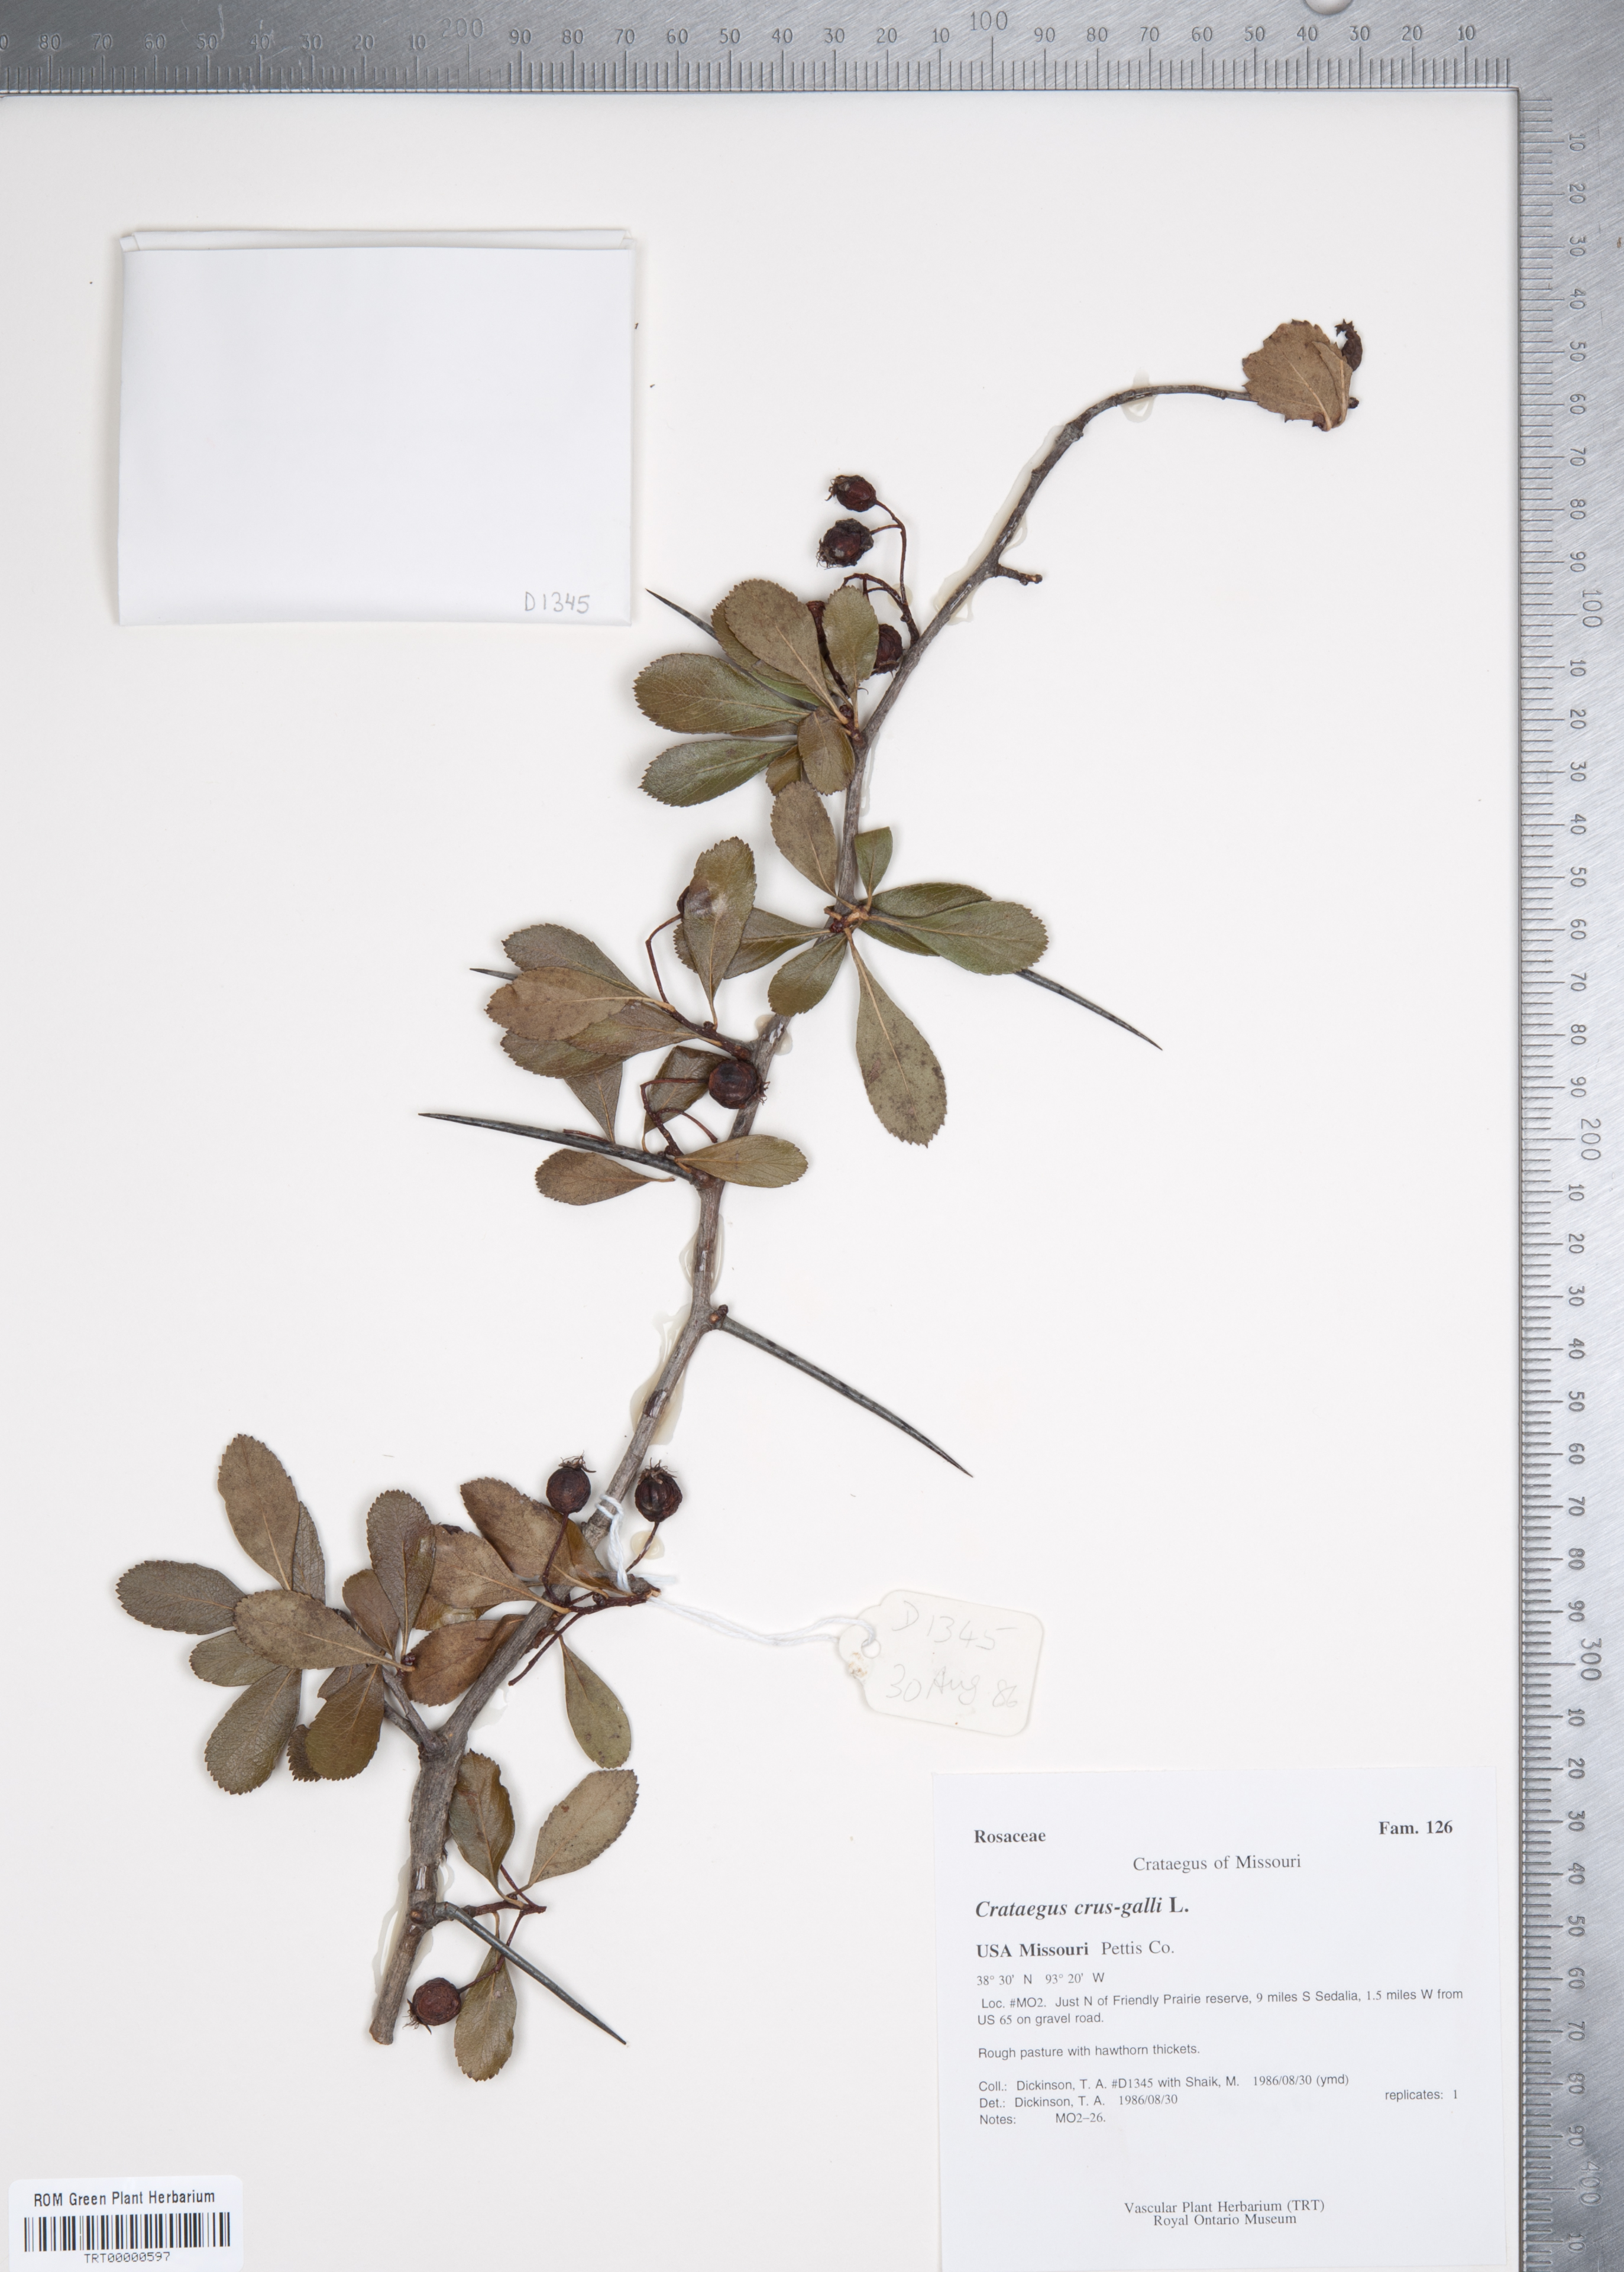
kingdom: Plantae
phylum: Tracheophyta
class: Magnoliopsida
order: Rosales
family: Rosaceae
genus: Crataegus
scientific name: Crataegus crus-galli
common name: Cockspurthorn
